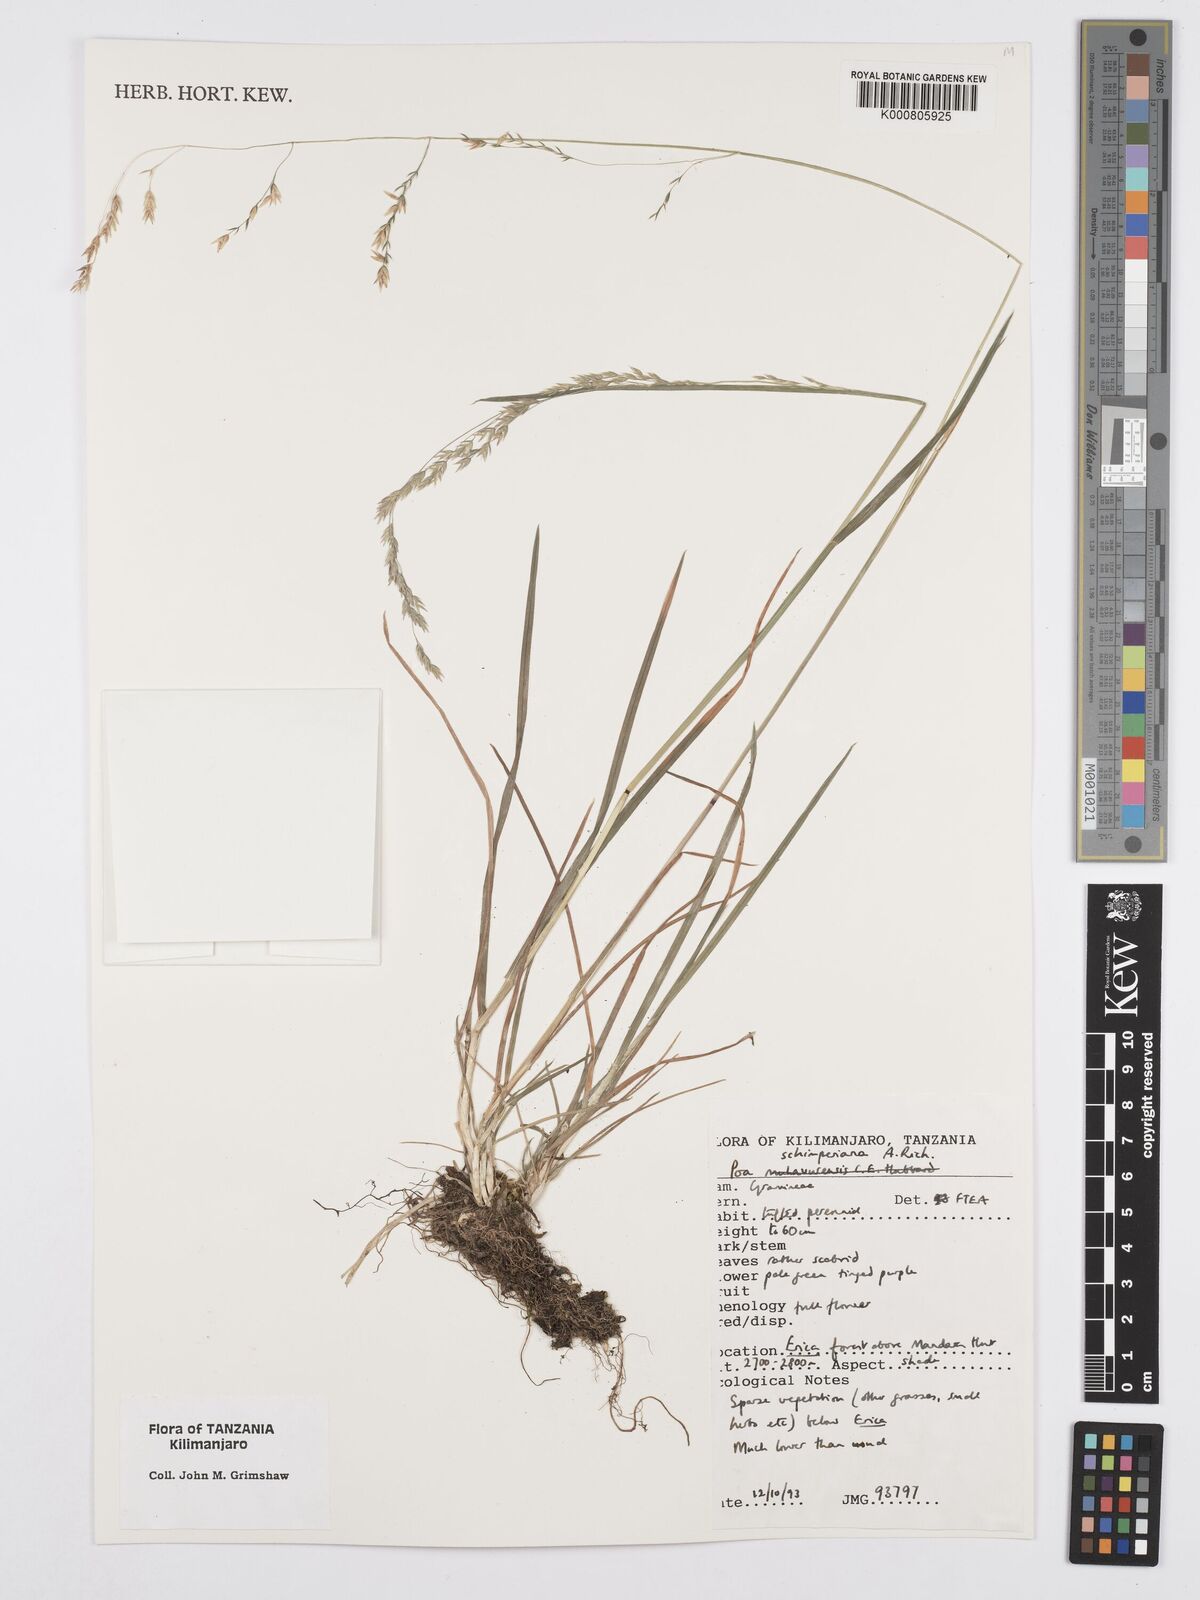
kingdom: Plantae
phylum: Tracheophyta
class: Liliopsida
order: Poales
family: Poaceae
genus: Poa
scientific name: Poa schimperiana
